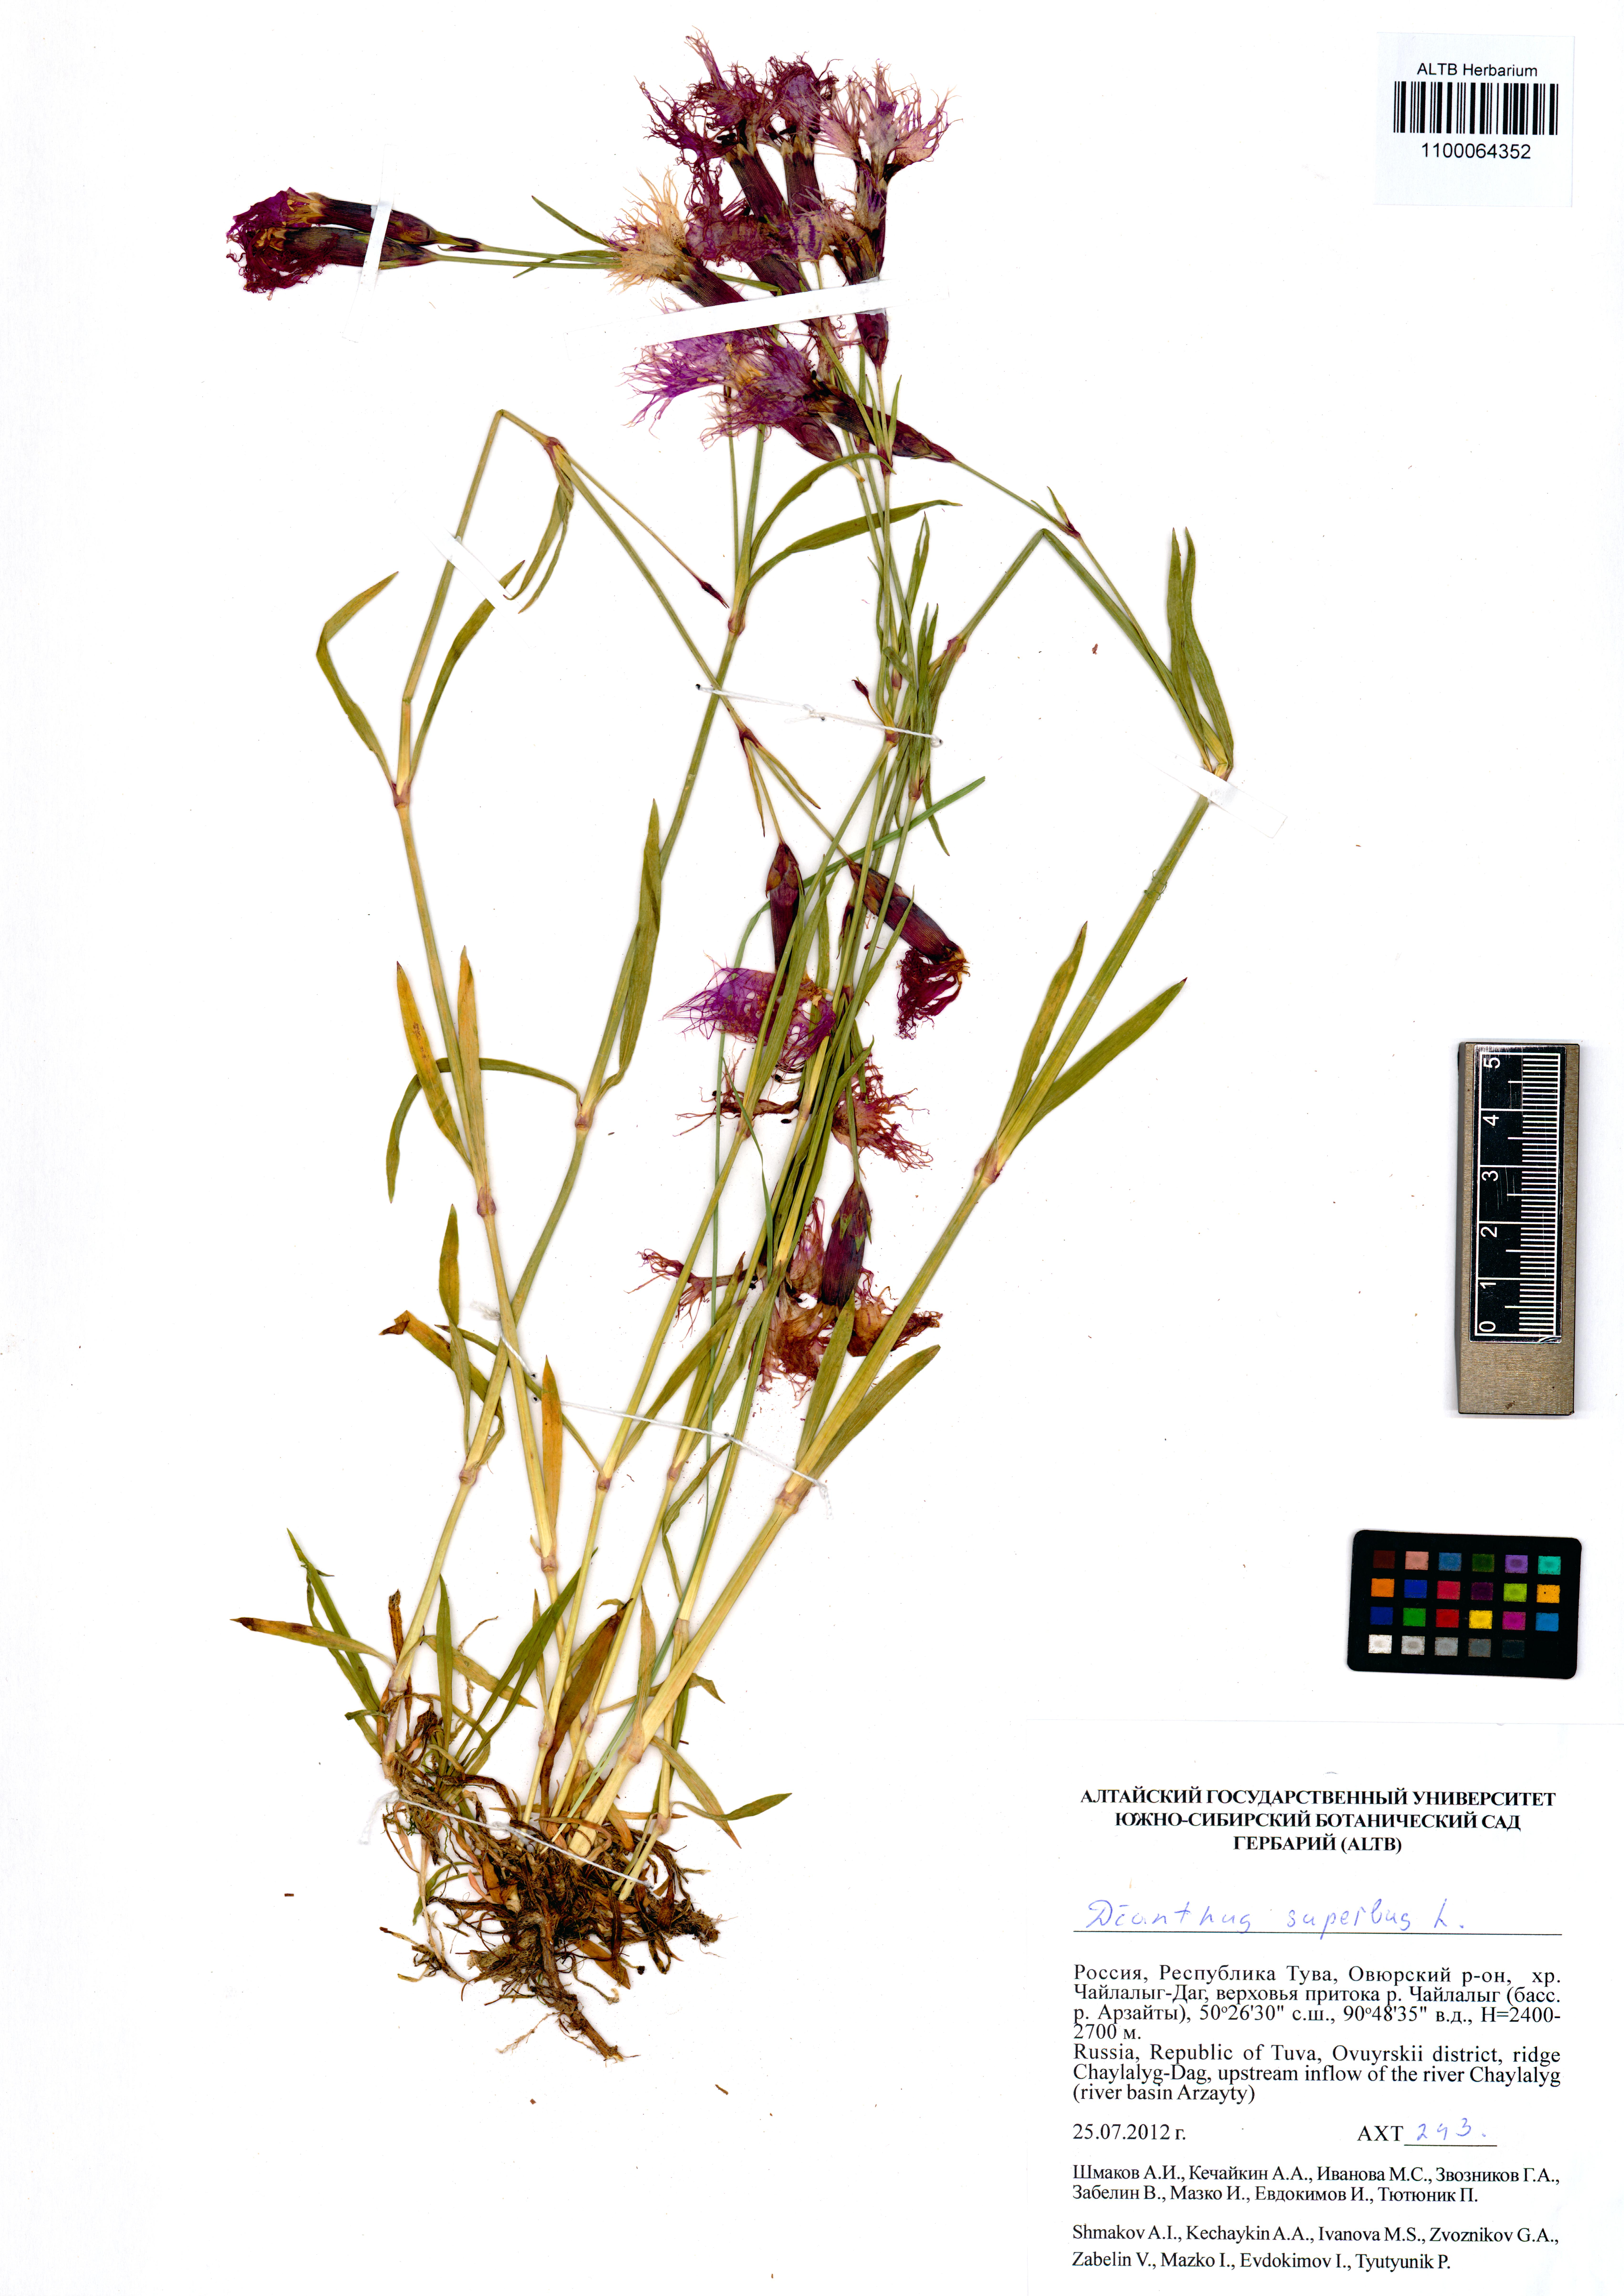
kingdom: Plantae
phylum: Tracheophyta
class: Magnoliopsida
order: Caryophyllales
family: Caryophyllaceae
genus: Dianthus
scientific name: Dianthus superbus
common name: Fringed pink
